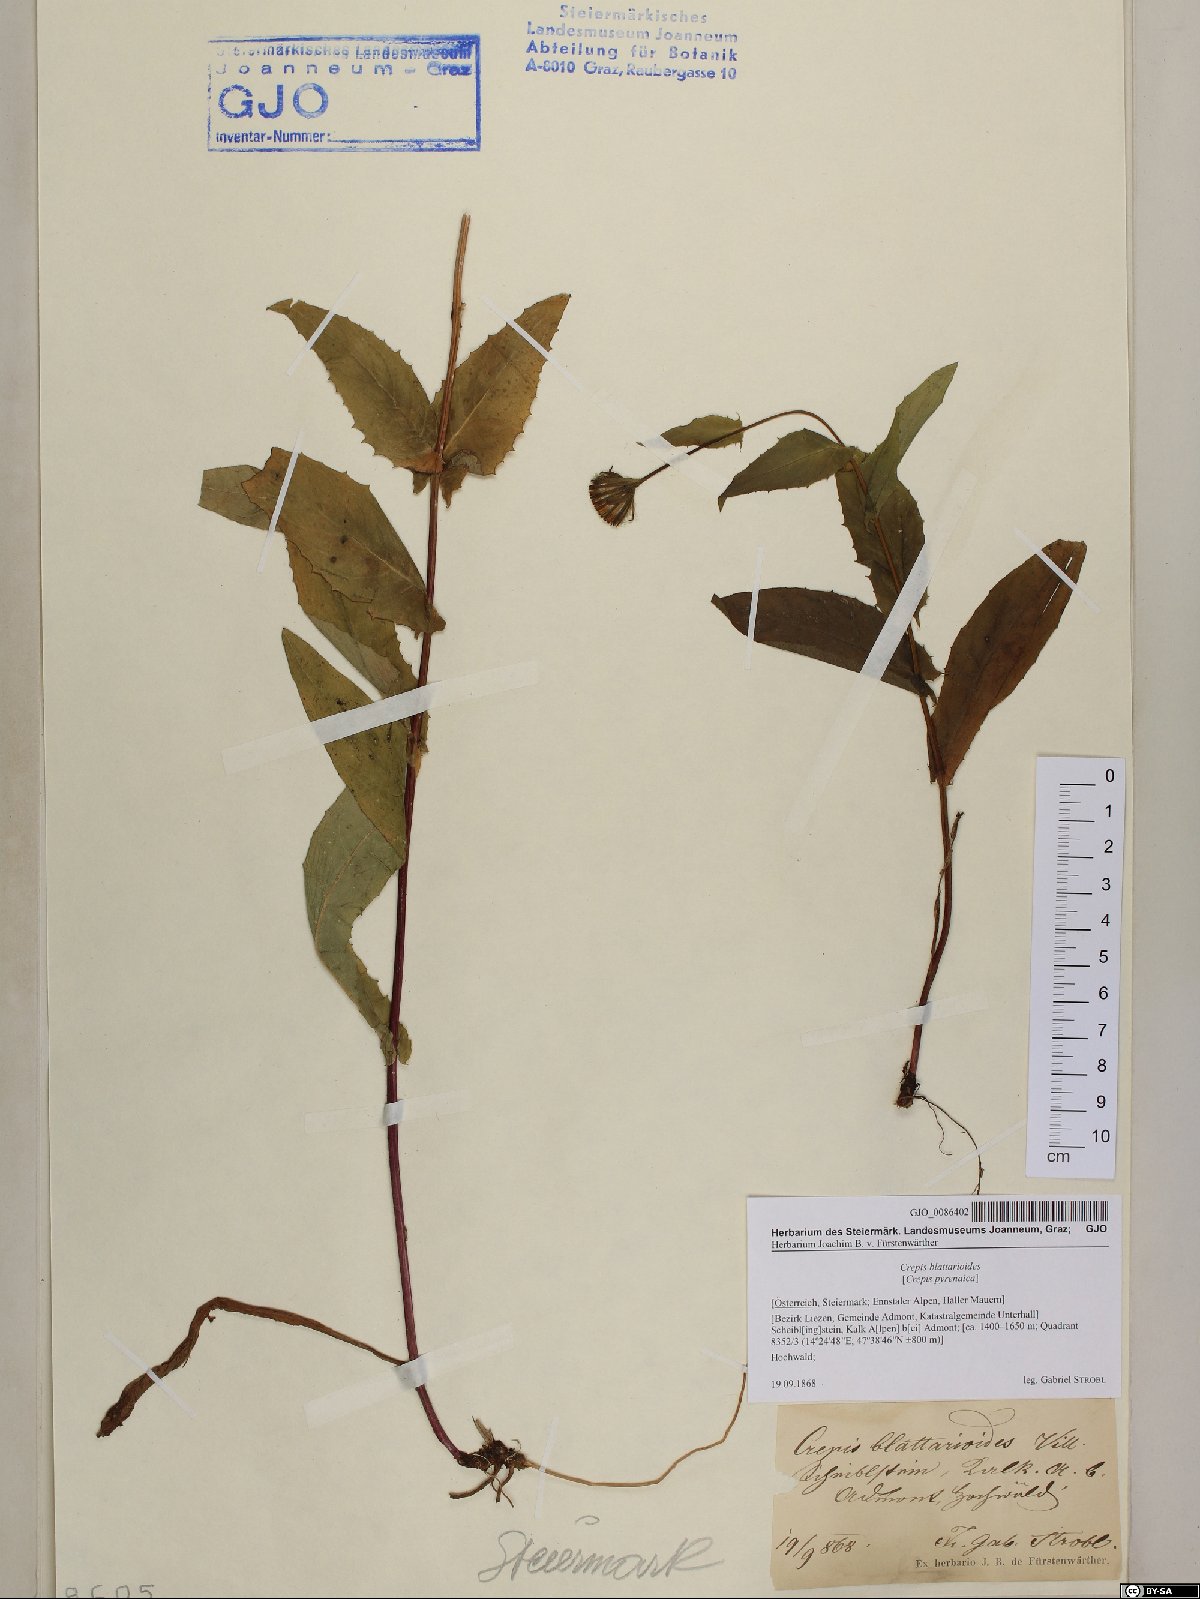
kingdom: Plantae
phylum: Tracheophyta
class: Magnoliopsida
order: Asterales
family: Asteraceae
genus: Crepis
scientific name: Crepis blattarioides
